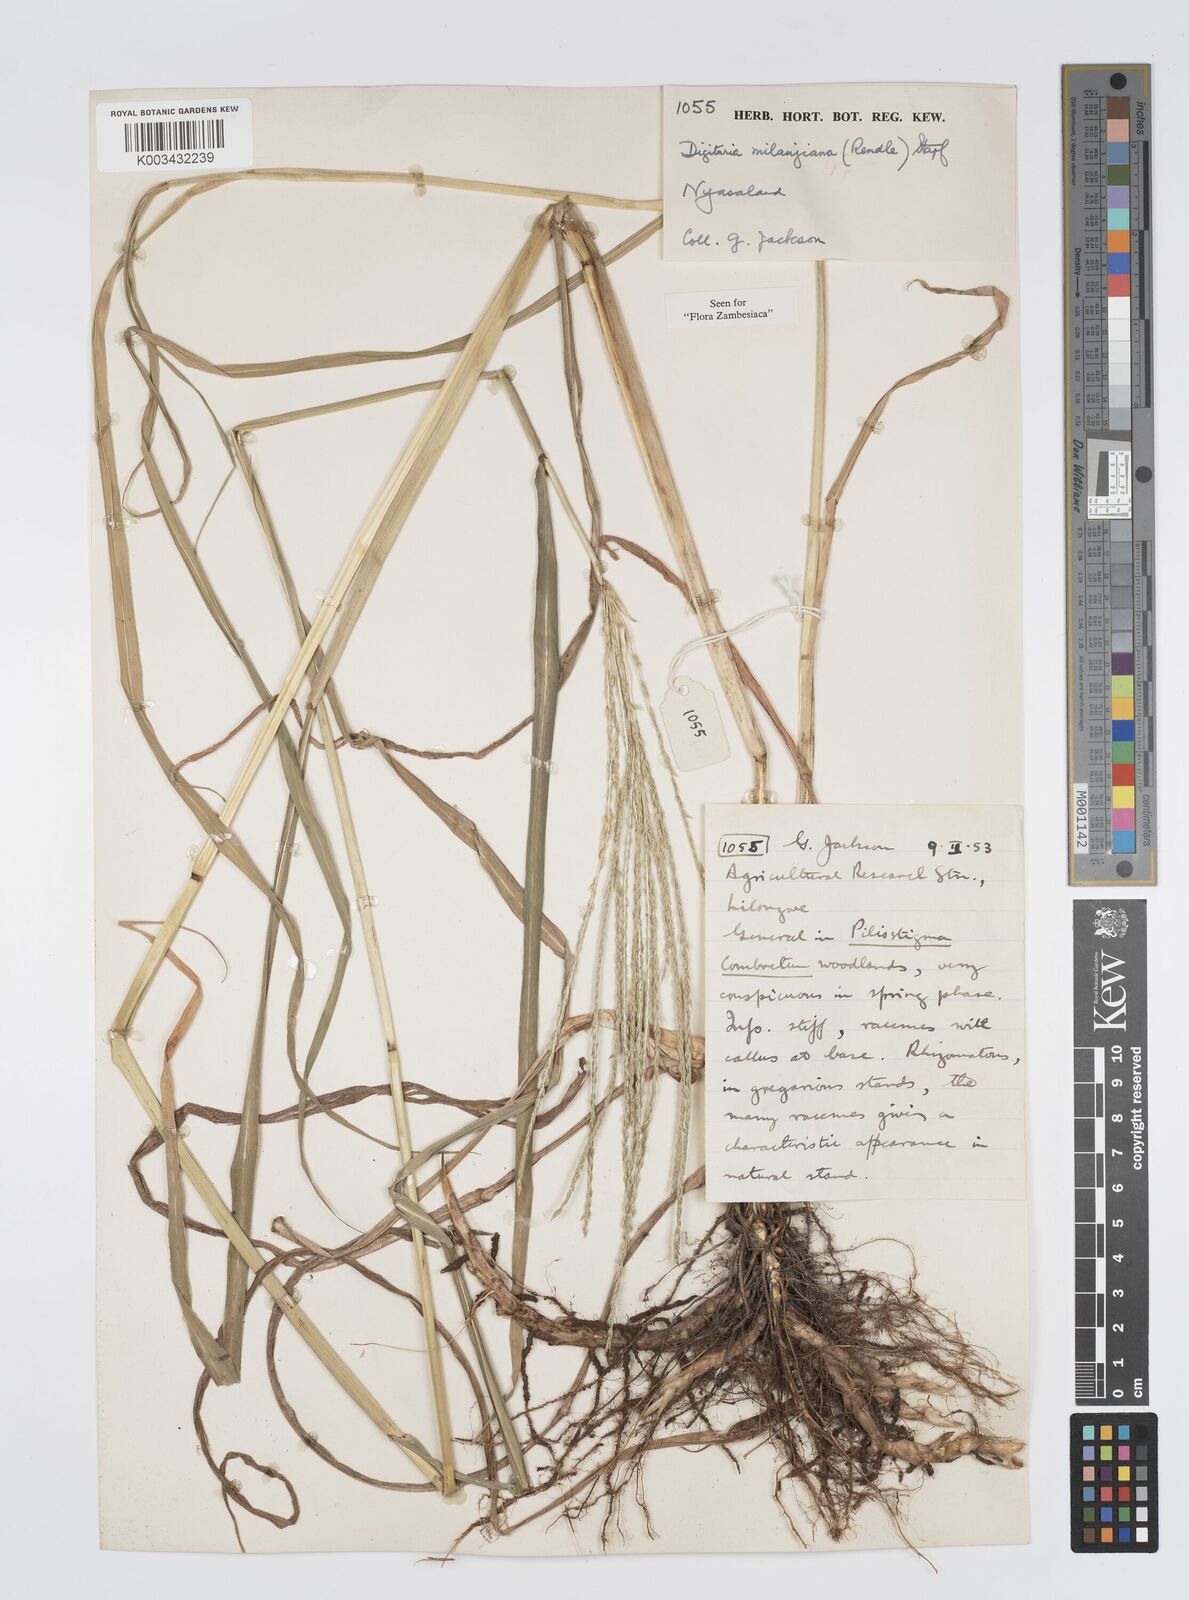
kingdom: Plantae
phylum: Tracheophyta
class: Liliopsida
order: Poales
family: Poaceae
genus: Digitaria
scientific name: Digitaria milanjiana
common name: Madagascar crabgrass
